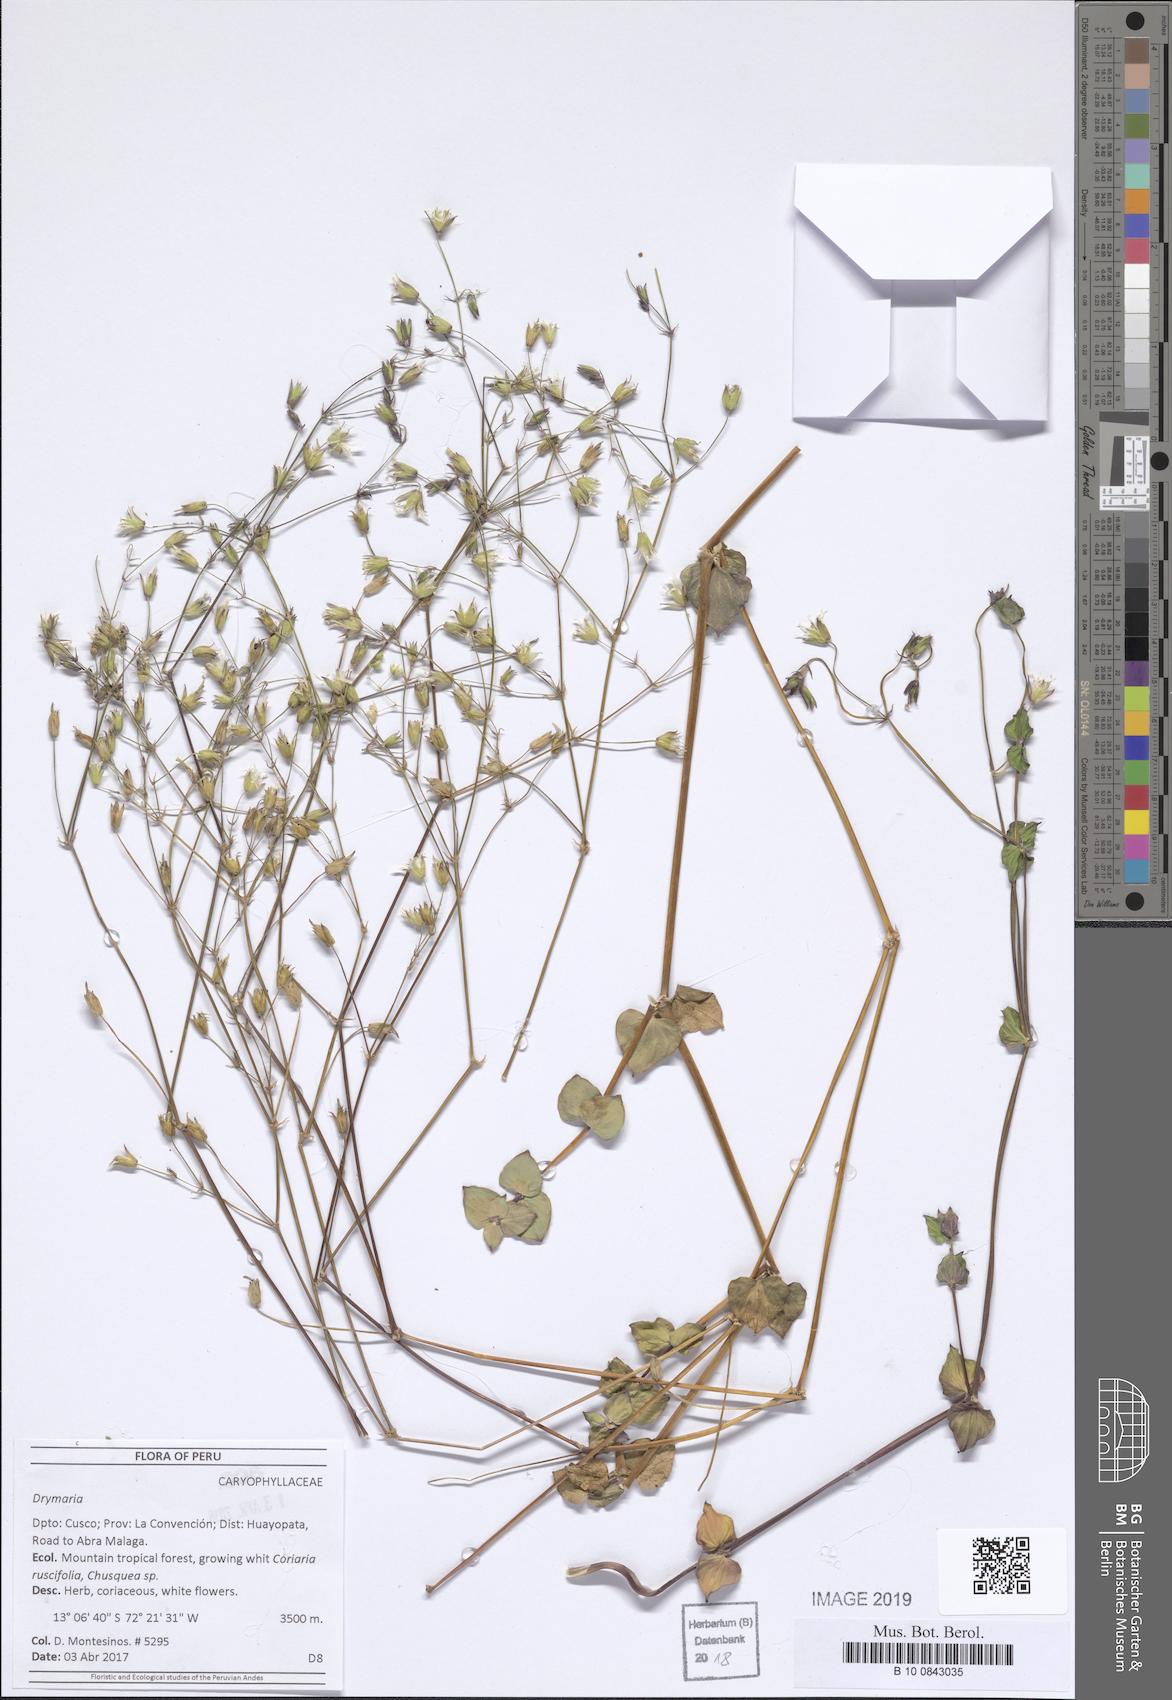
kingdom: Plantae
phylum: Tracheophyta
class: Magnoliopsida
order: Caryophyllales
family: Caryophyllaceae
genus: Drymaria
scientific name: Drymaria
